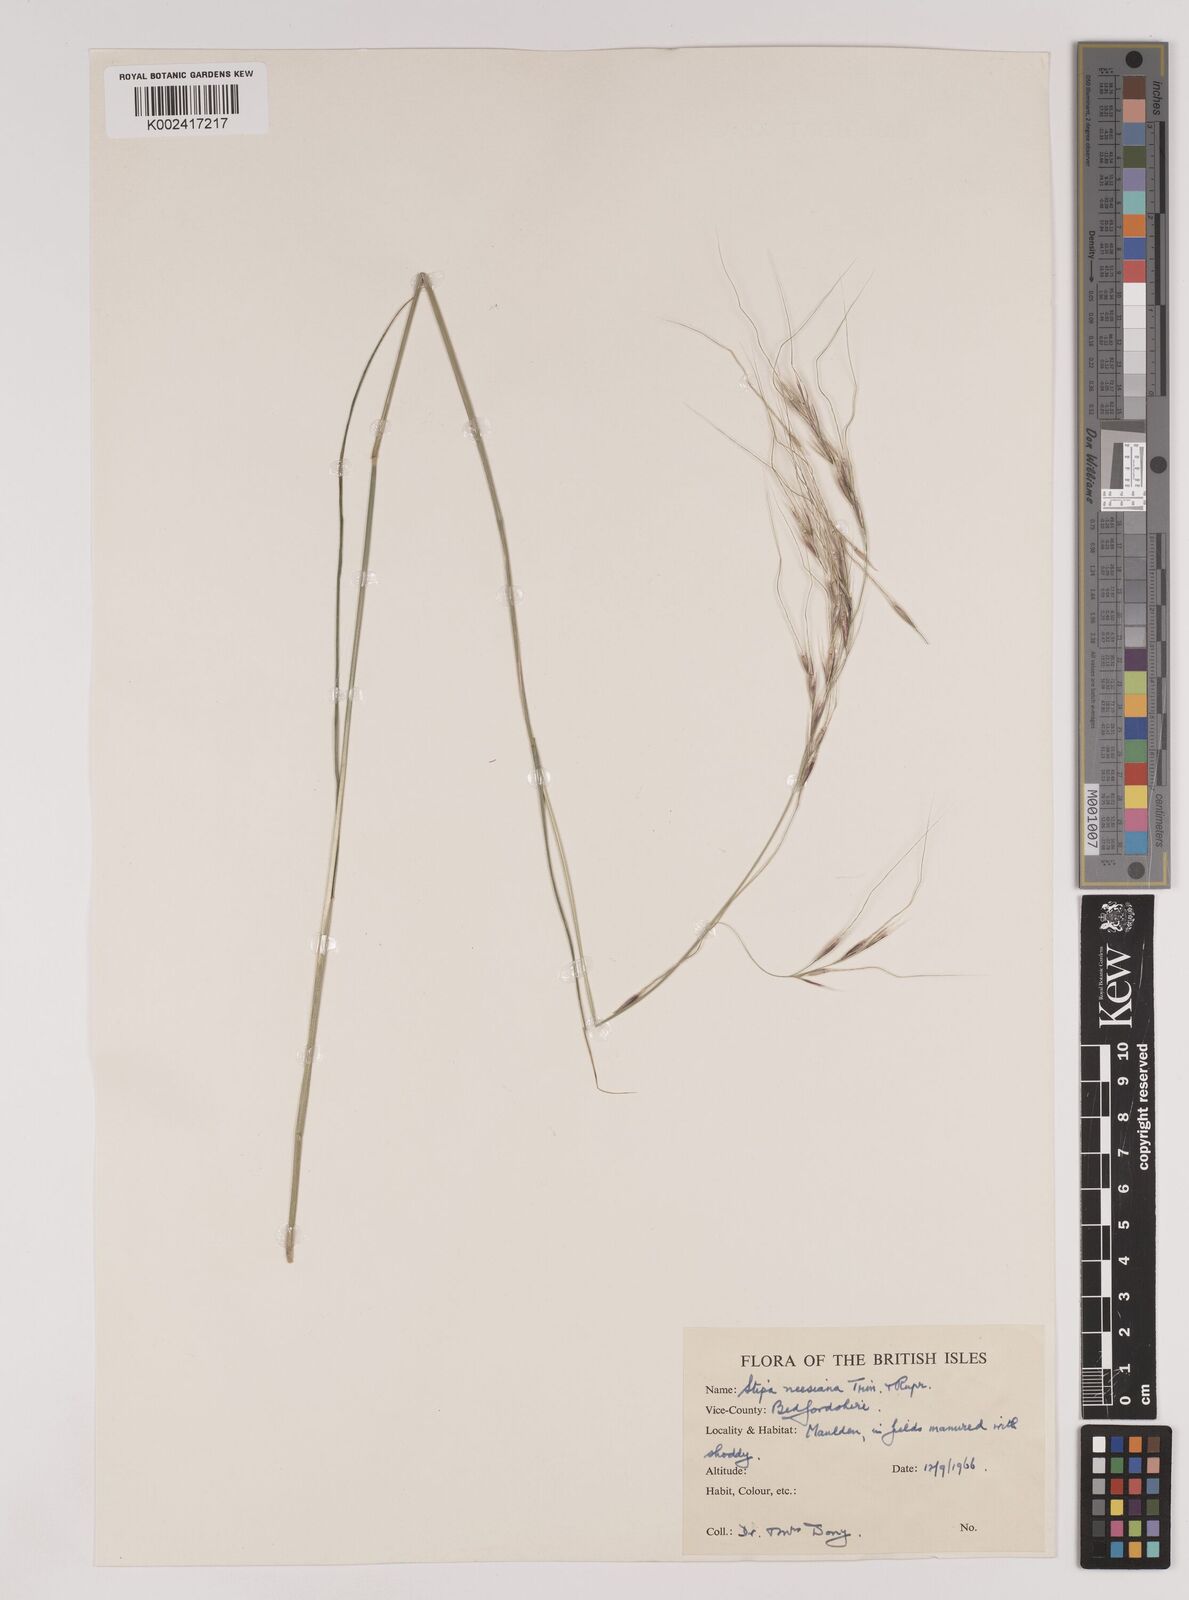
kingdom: Plantae
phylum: Tracheophyta
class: Liliopsida
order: Poales
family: Poaceae
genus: Nassella
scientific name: Nassella neesiana
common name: American needle-grass
